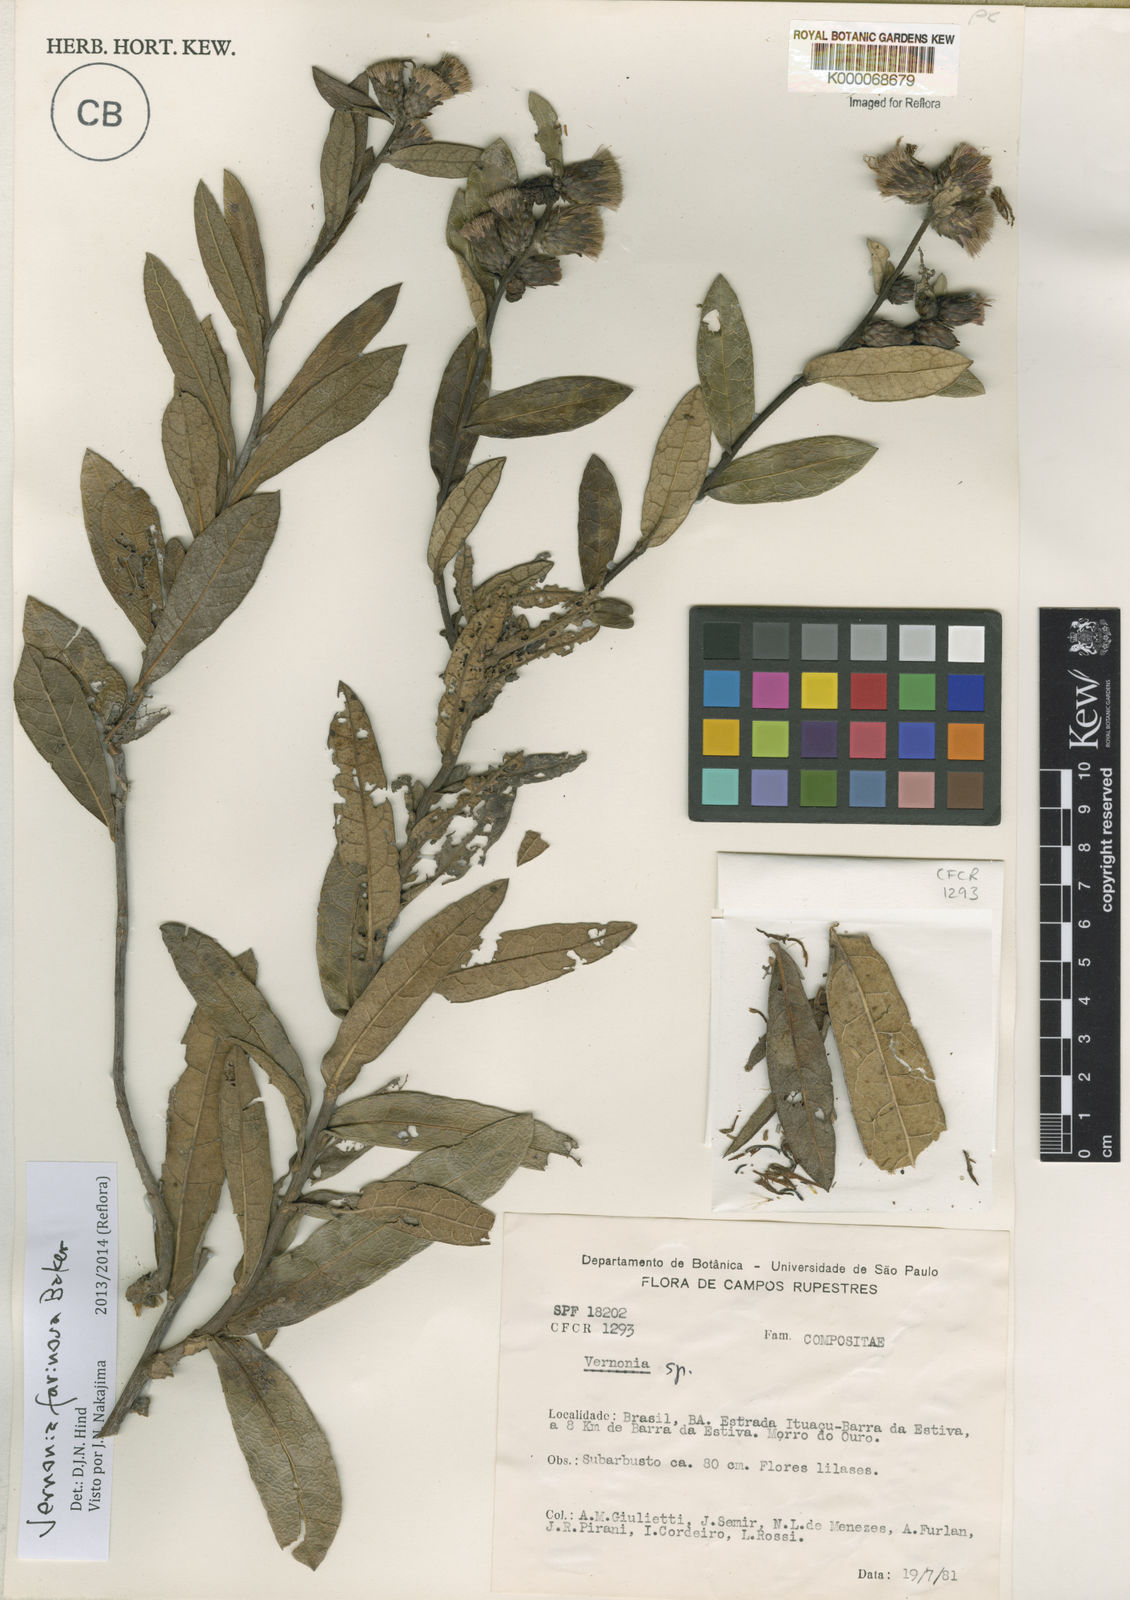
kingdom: Plantae
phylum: Tracheophyta
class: Magnoliopsida
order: Asterales
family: Asteraceae
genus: Lessingianthus
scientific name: Lessingianthus farinosus
